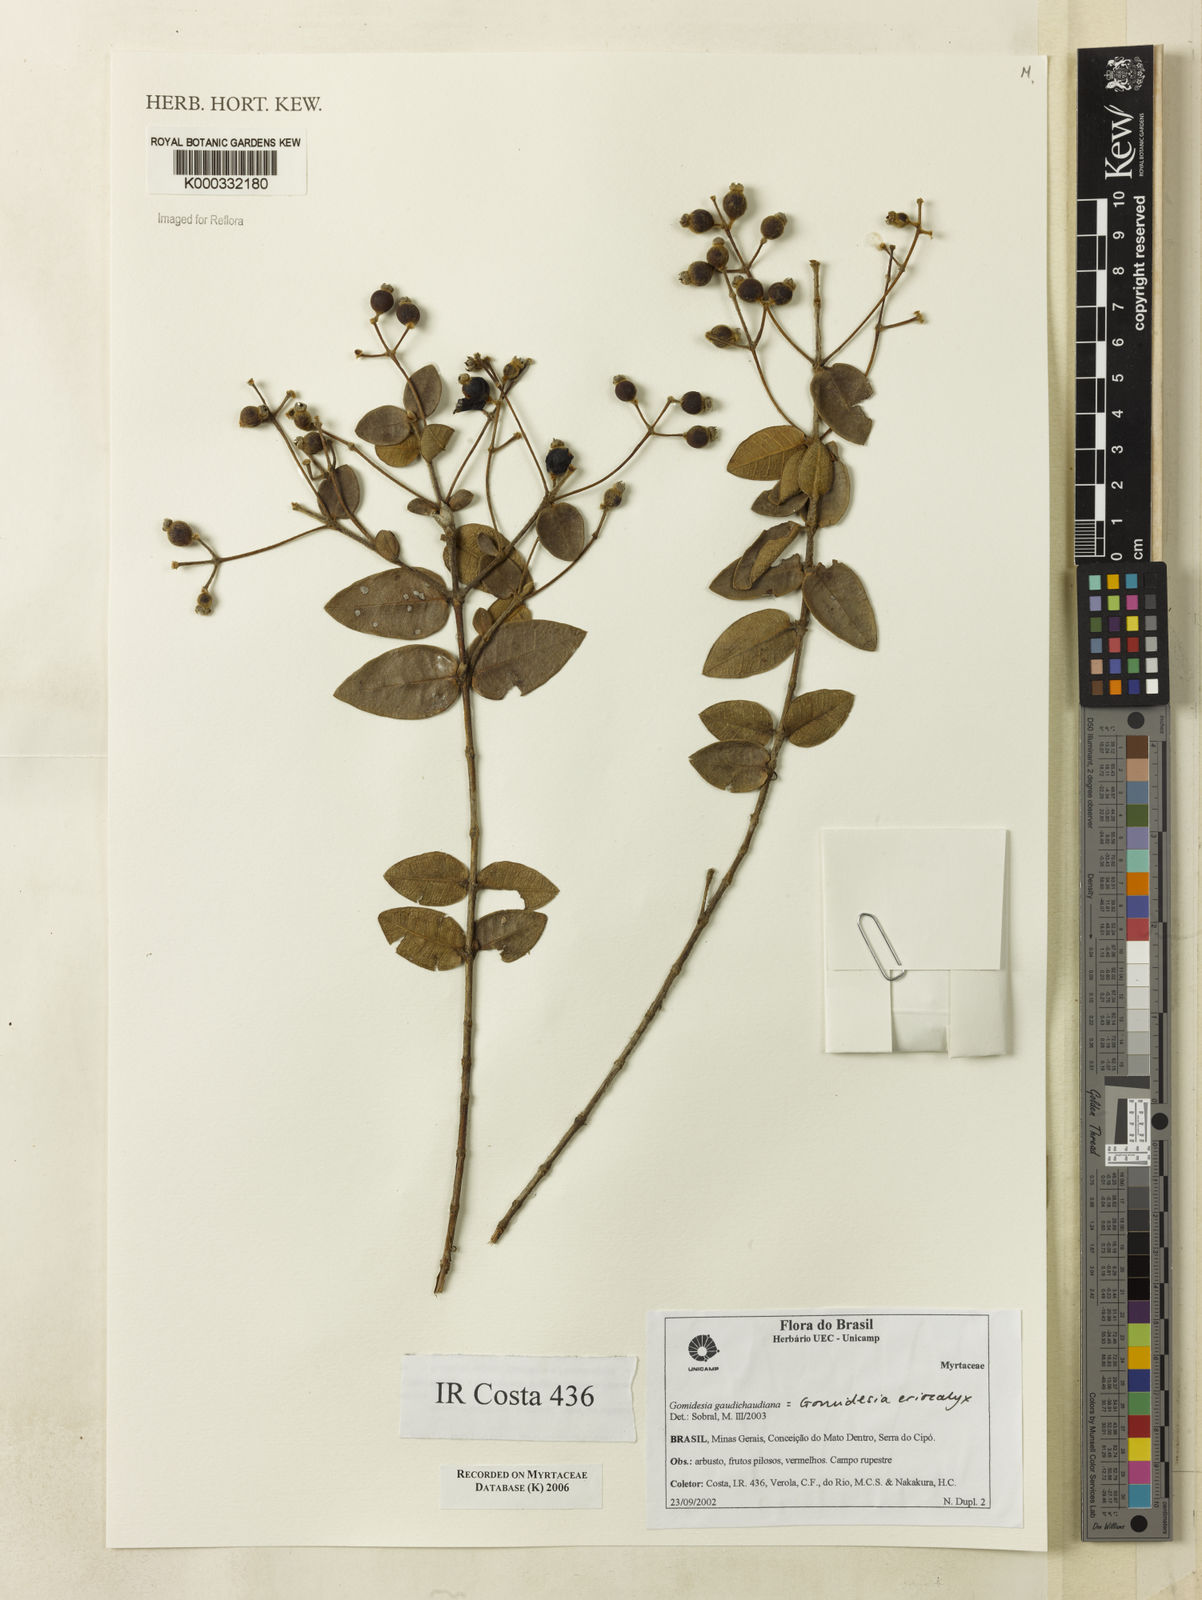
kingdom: Plantae
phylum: Tracheophyta
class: Magnoliopsida
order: Myrtales
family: Myrtaceae
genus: Myrcia
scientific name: Myrcia eriocalyx
